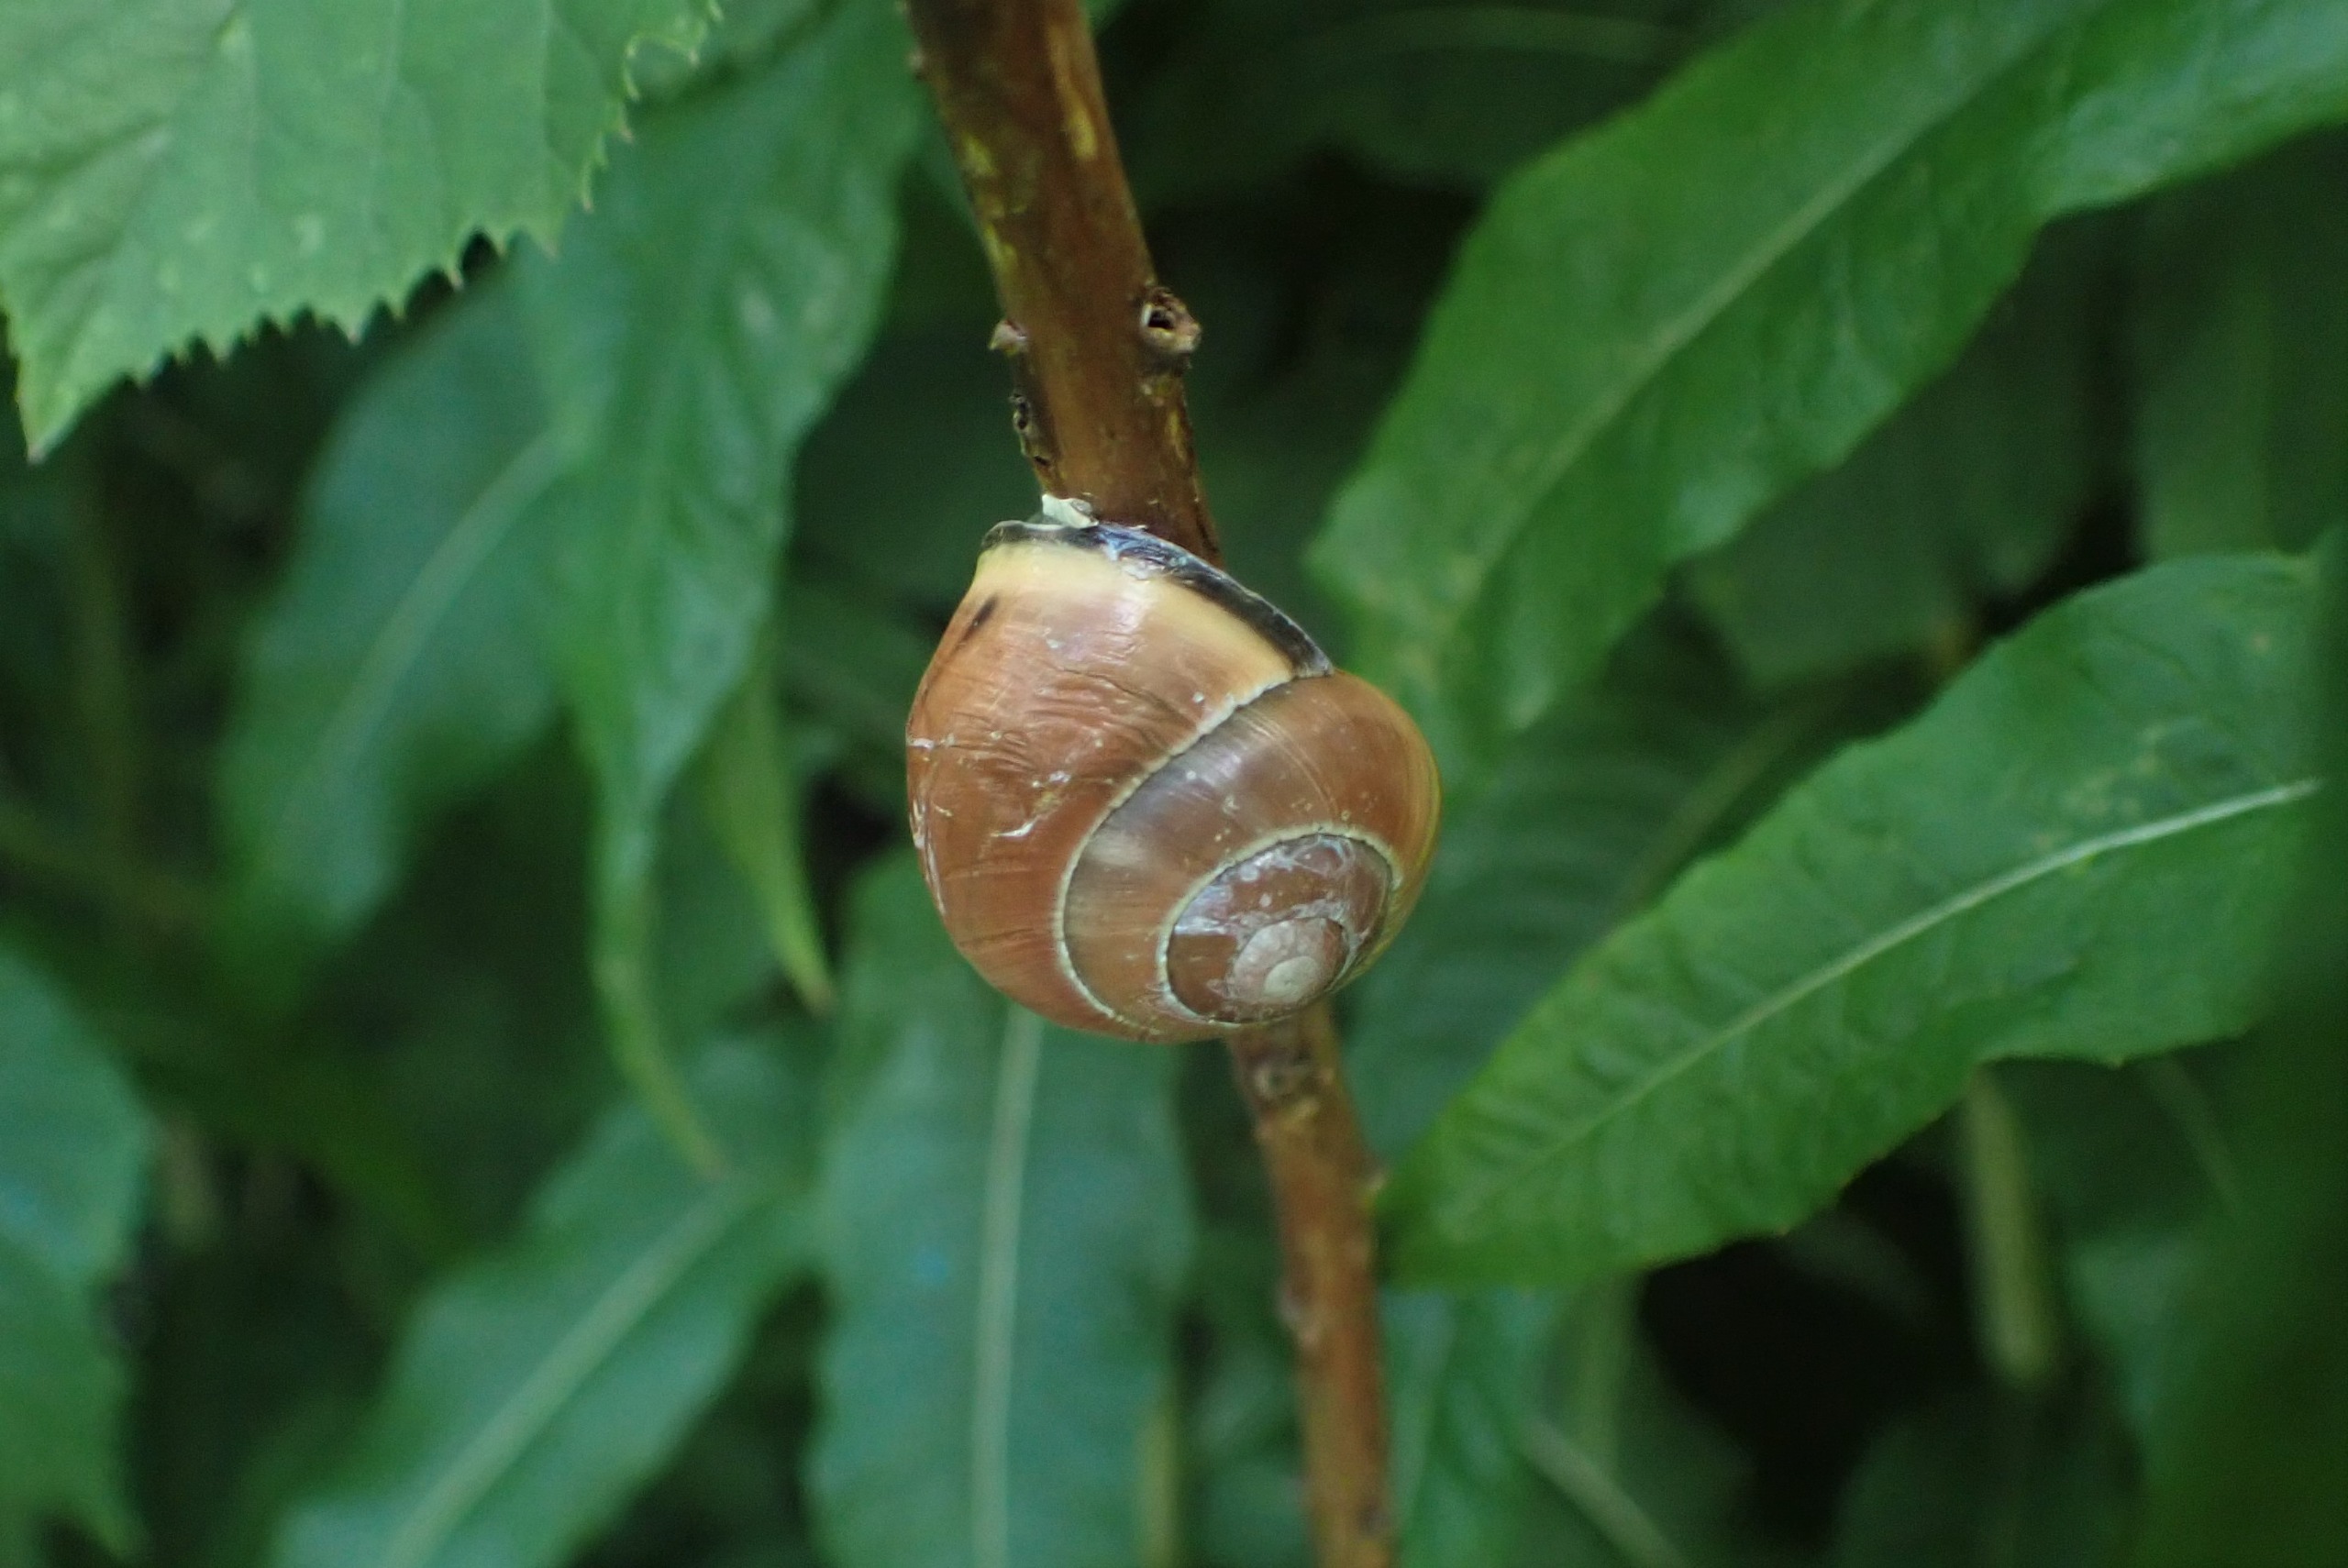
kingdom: Animalia
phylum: Mollusca
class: Gastropoda
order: Stylommatophora
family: Helicidae
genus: Cepaea
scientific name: Cepaea nemoralis
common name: Lundsnegl
